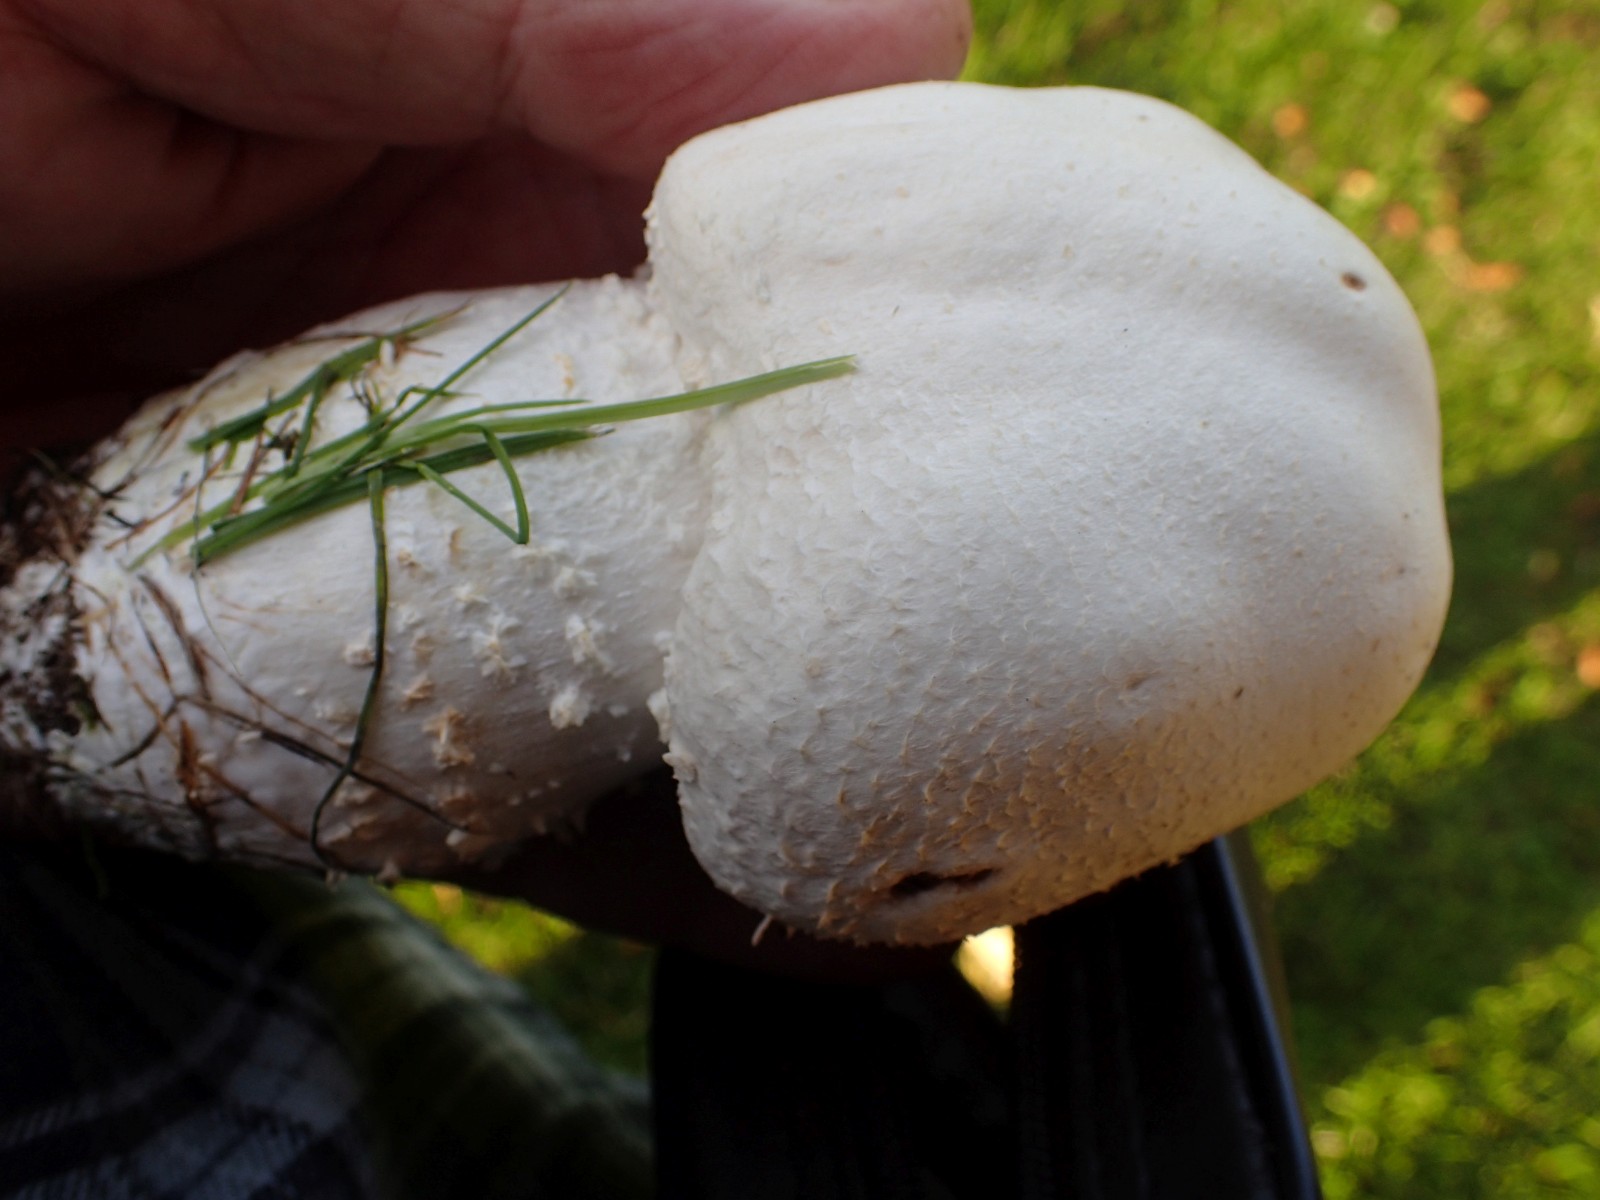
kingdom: Fungi
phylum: Basidiomycota
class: Agaricomycetes
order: Agaricales
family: Agaricaceae
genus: Agaricus
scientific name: Agaricus
